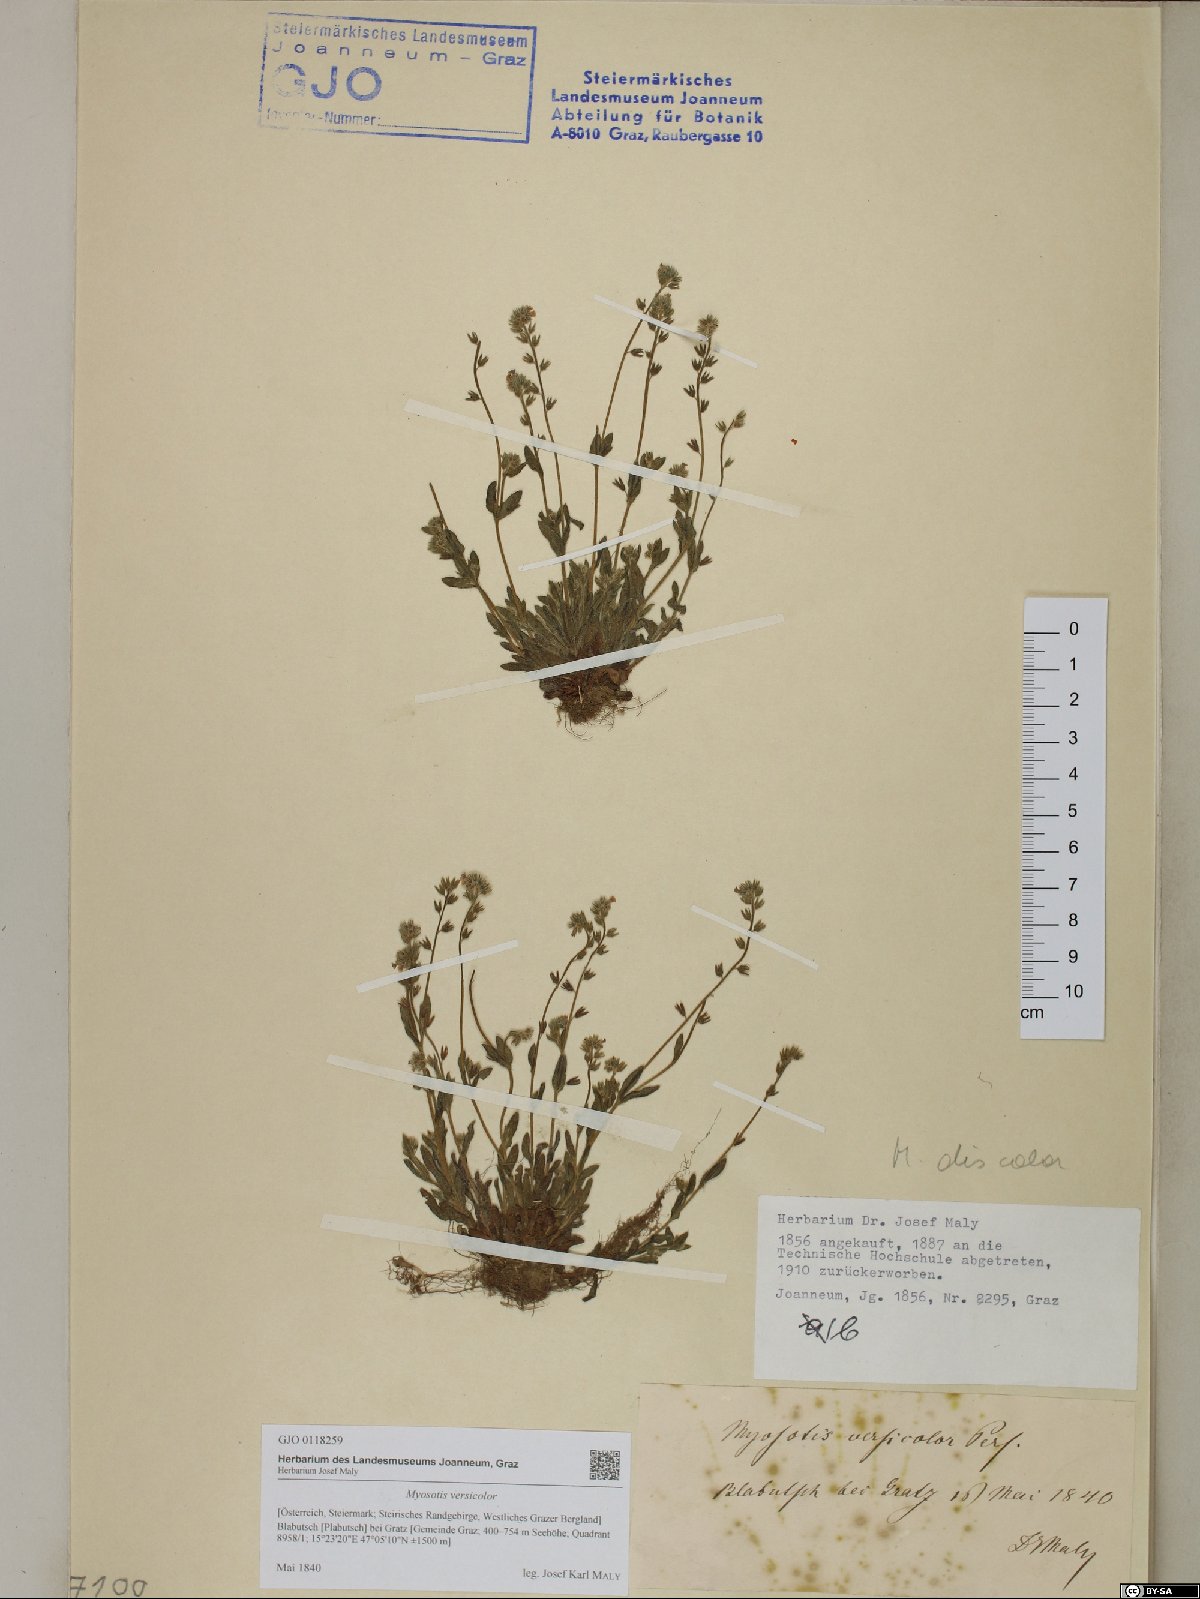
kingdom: Plantae
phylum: Tracheophyta
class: Magnoliopsida
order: Boraginales
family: Boraginaceae
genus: Myosotis
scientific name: Myosotis discolor
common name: Changing forget-me-not
